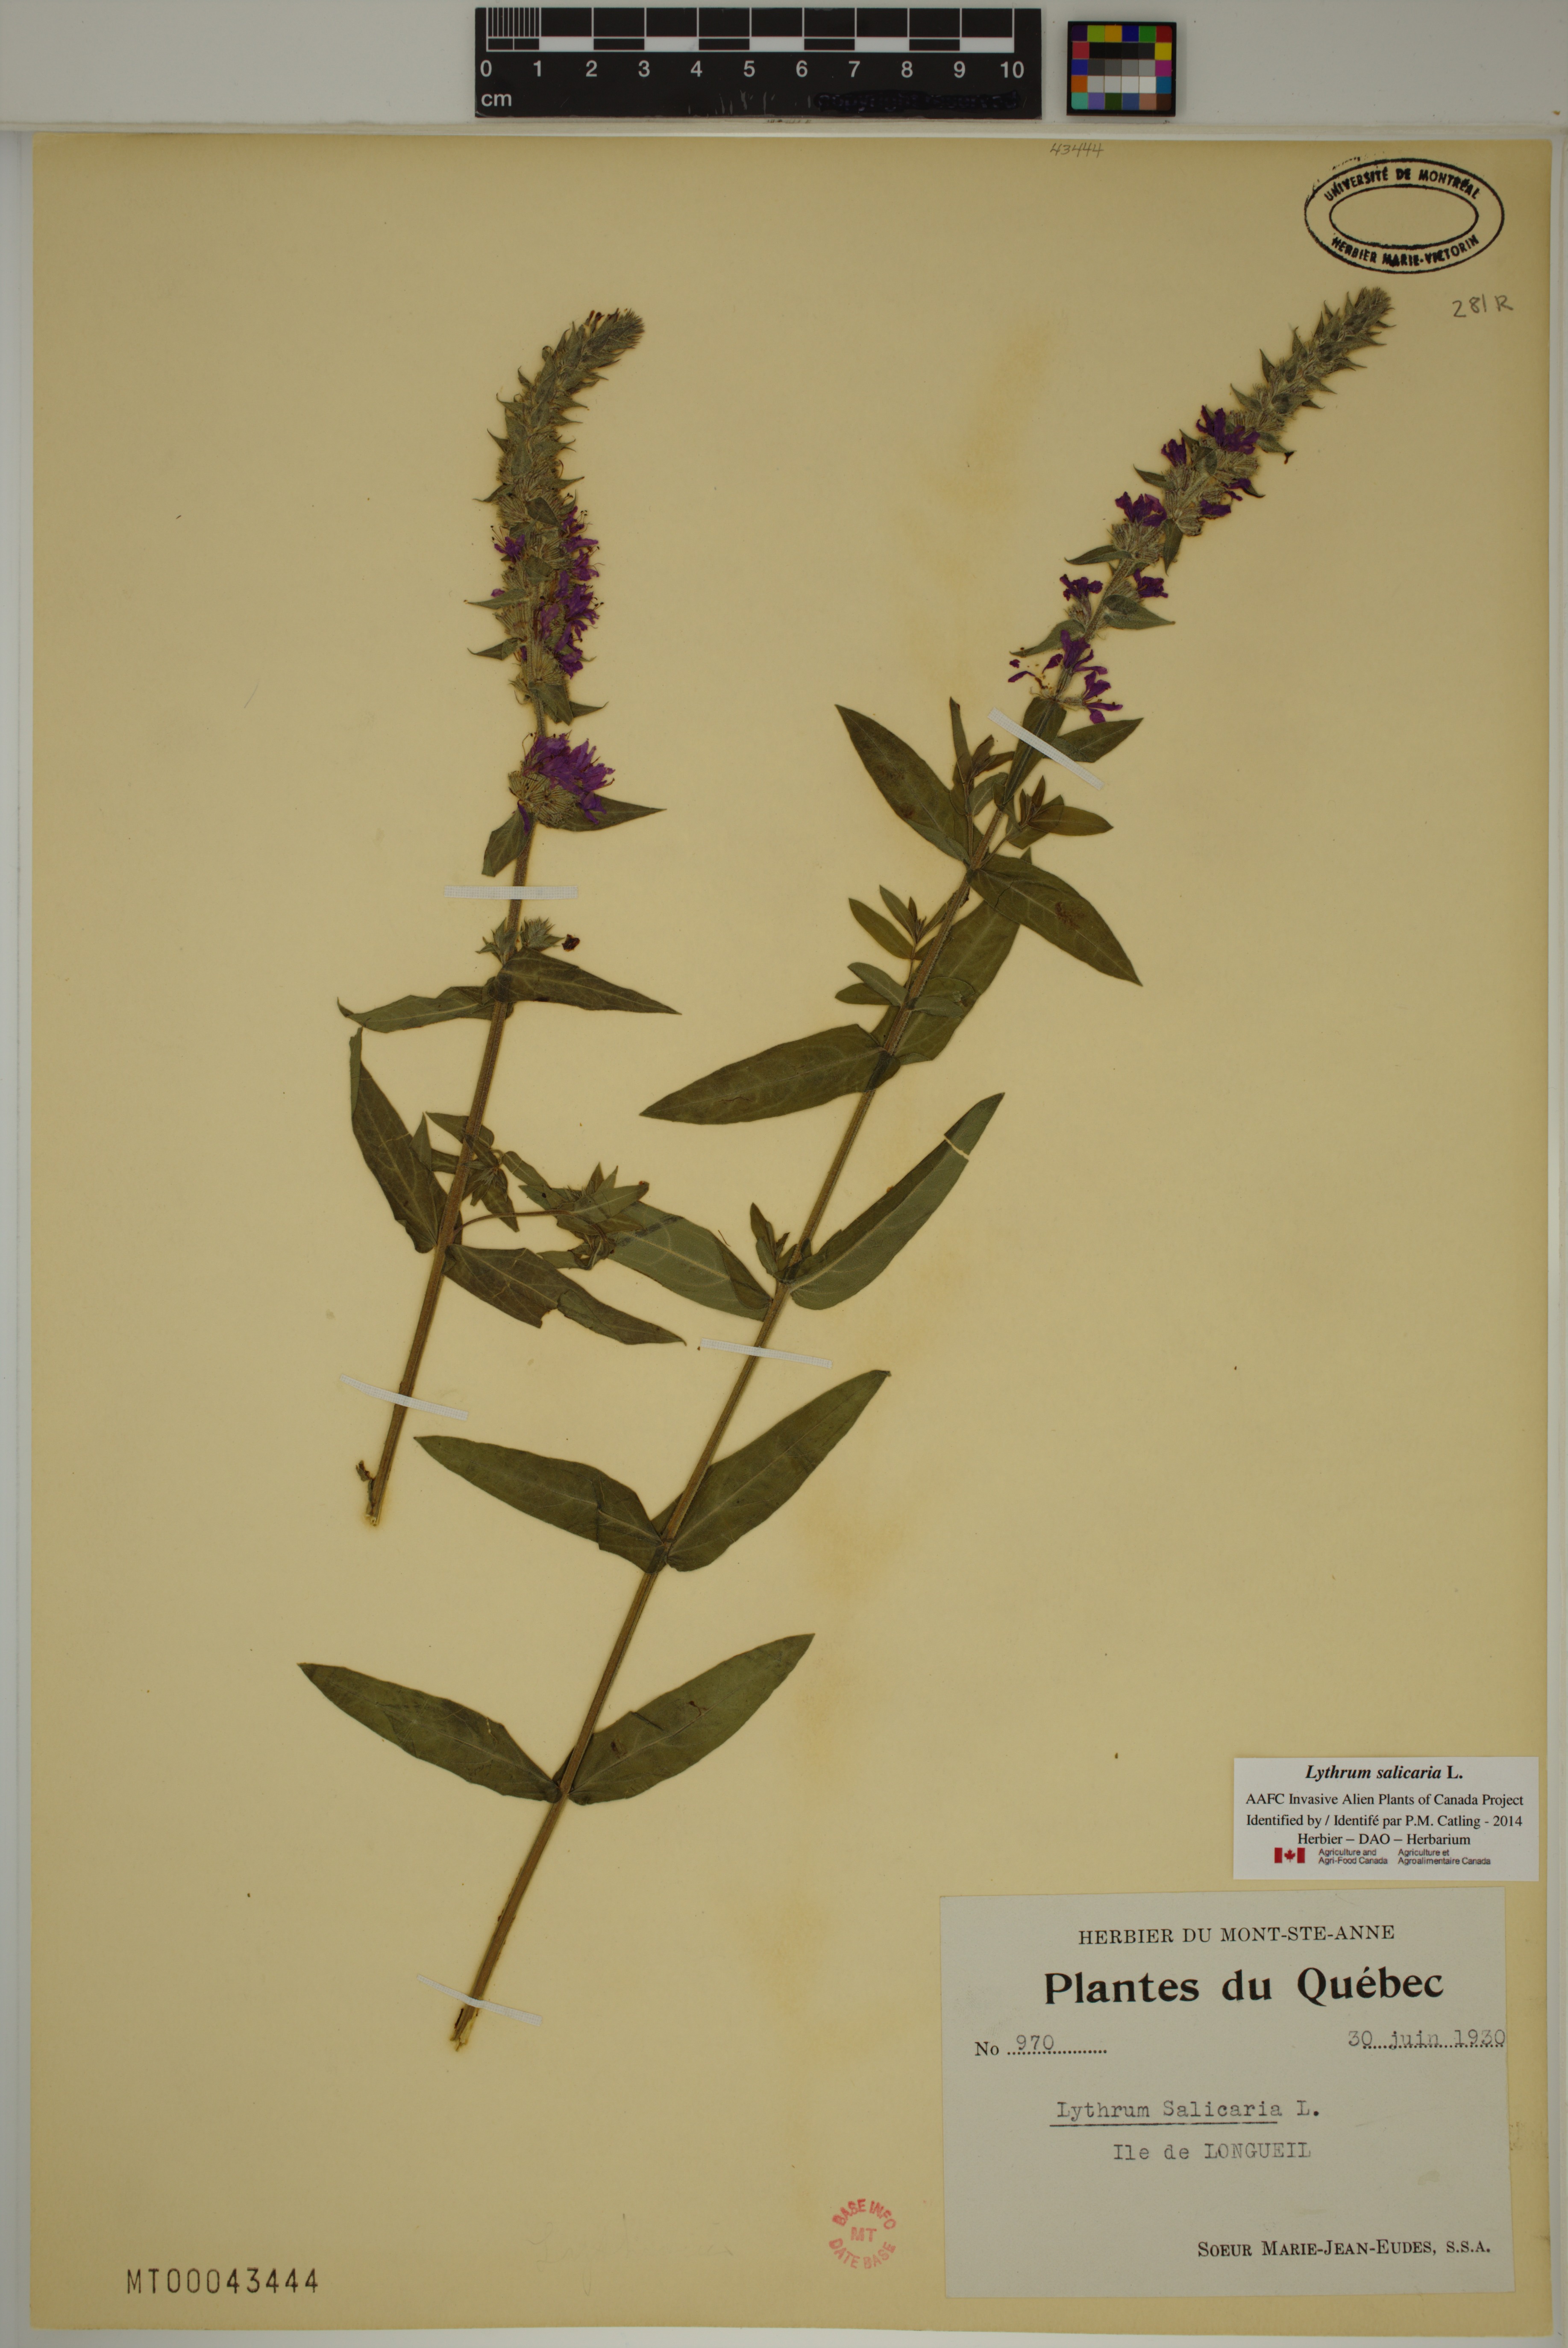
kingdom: Plantae
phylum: Tracheophyta
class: Magnoliopsida
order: Myrtales
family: Lythraceae
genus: Lythrum
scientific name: Lythrum salicaria
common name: Purple loosestrife
